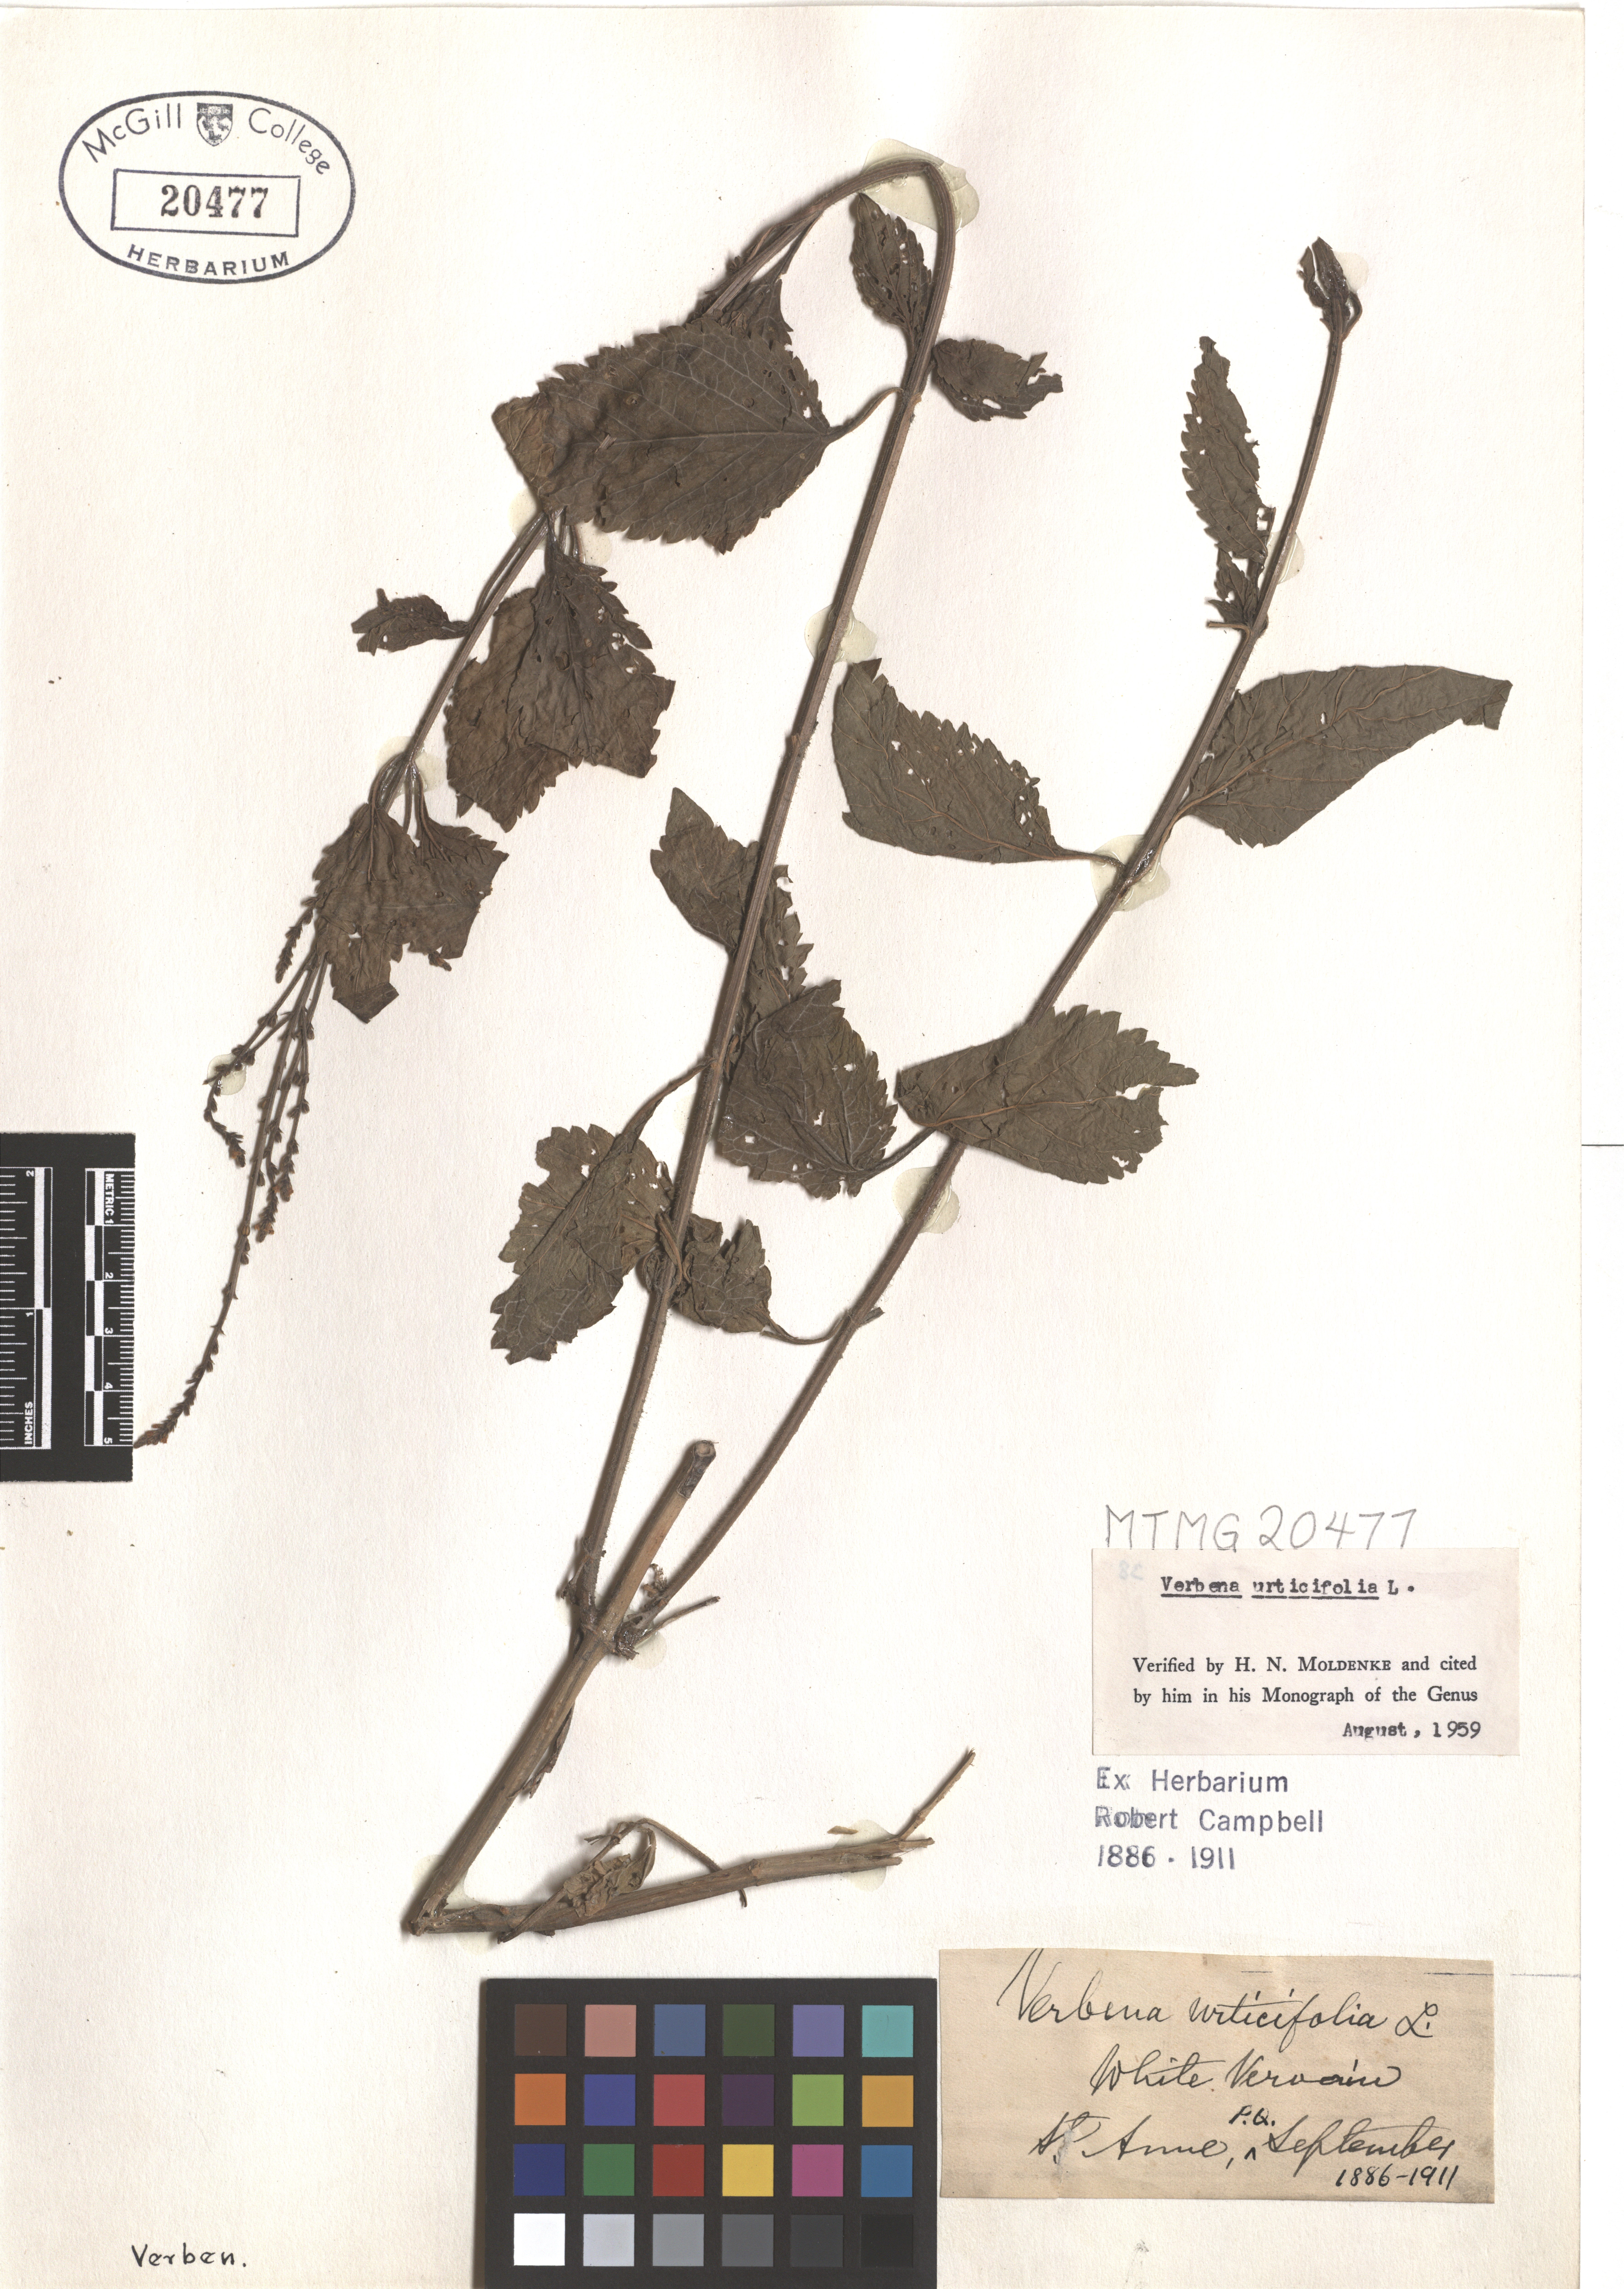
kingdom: Plantae
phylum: Tracheophyta
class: Magnoliopsida
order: Lamiales
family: Verbenaceae
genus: Verbena
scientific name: Verbena urticifolia
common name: Nettle-leaved vervain
